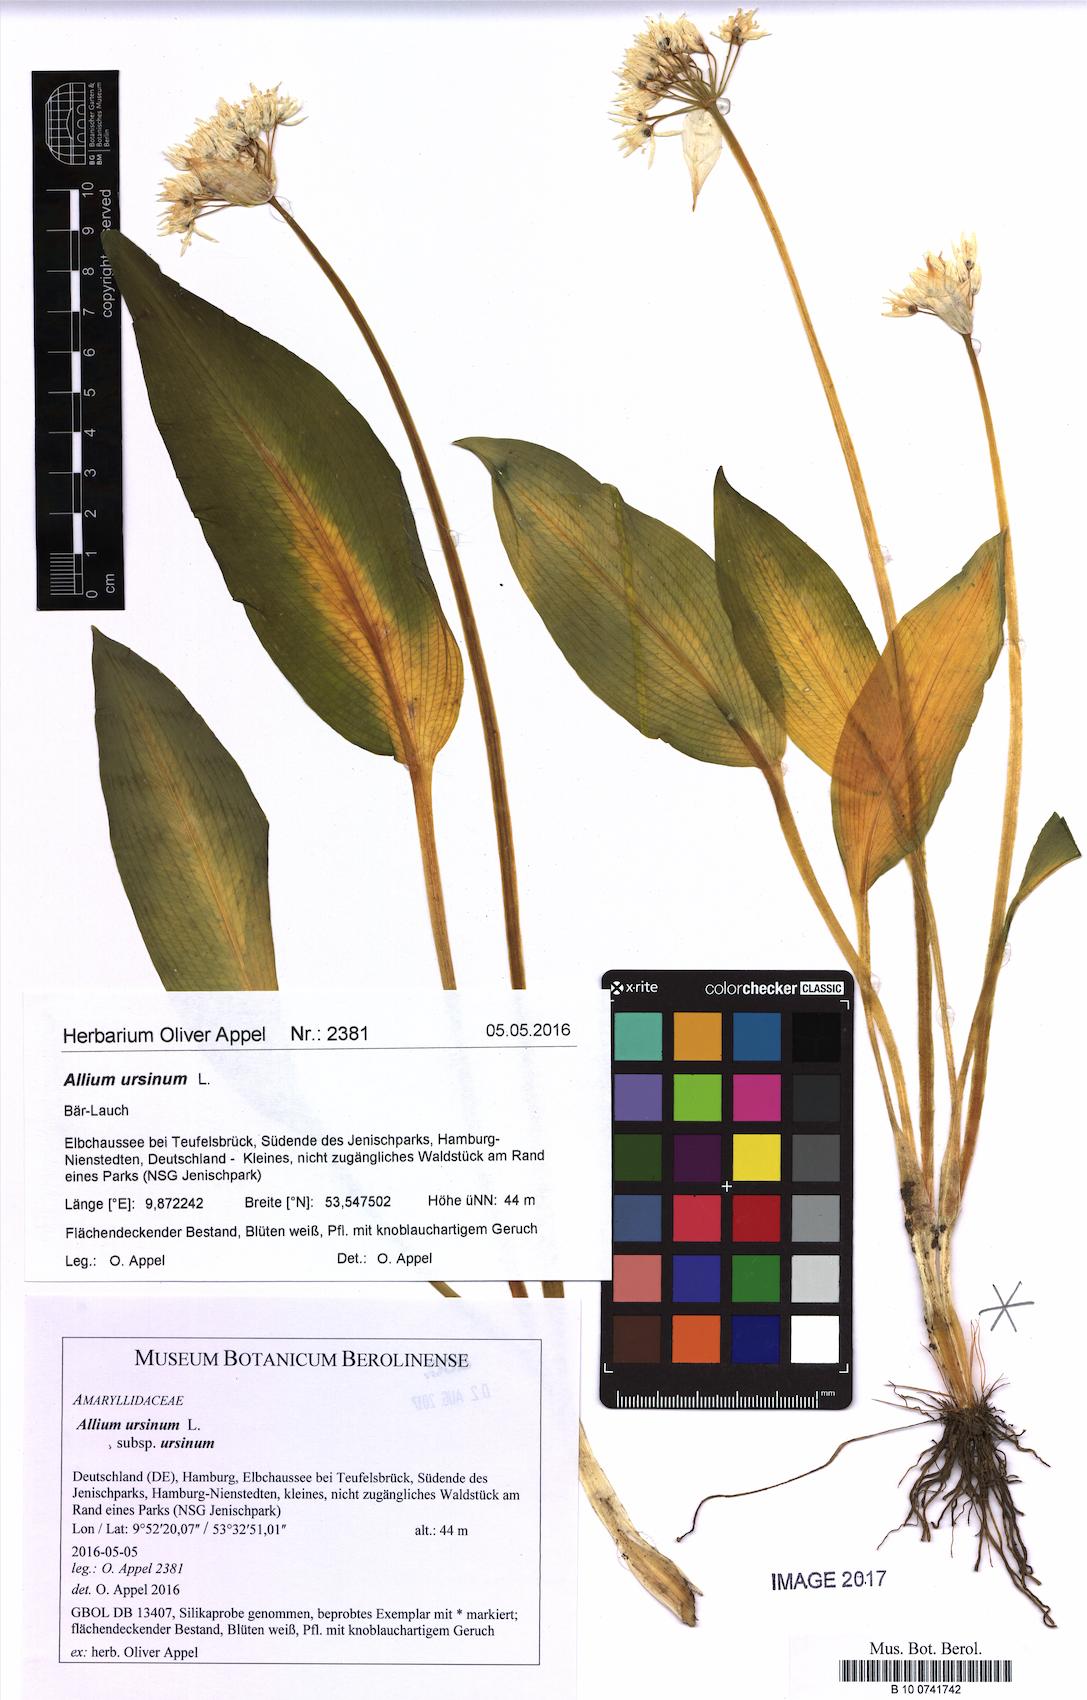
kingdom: Plantae
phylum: Tracheophyta
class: Liliopsida
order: Asparagales
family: Amaryllidaceae
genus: Allium
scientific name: Allium ursinum
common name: Ramsons
